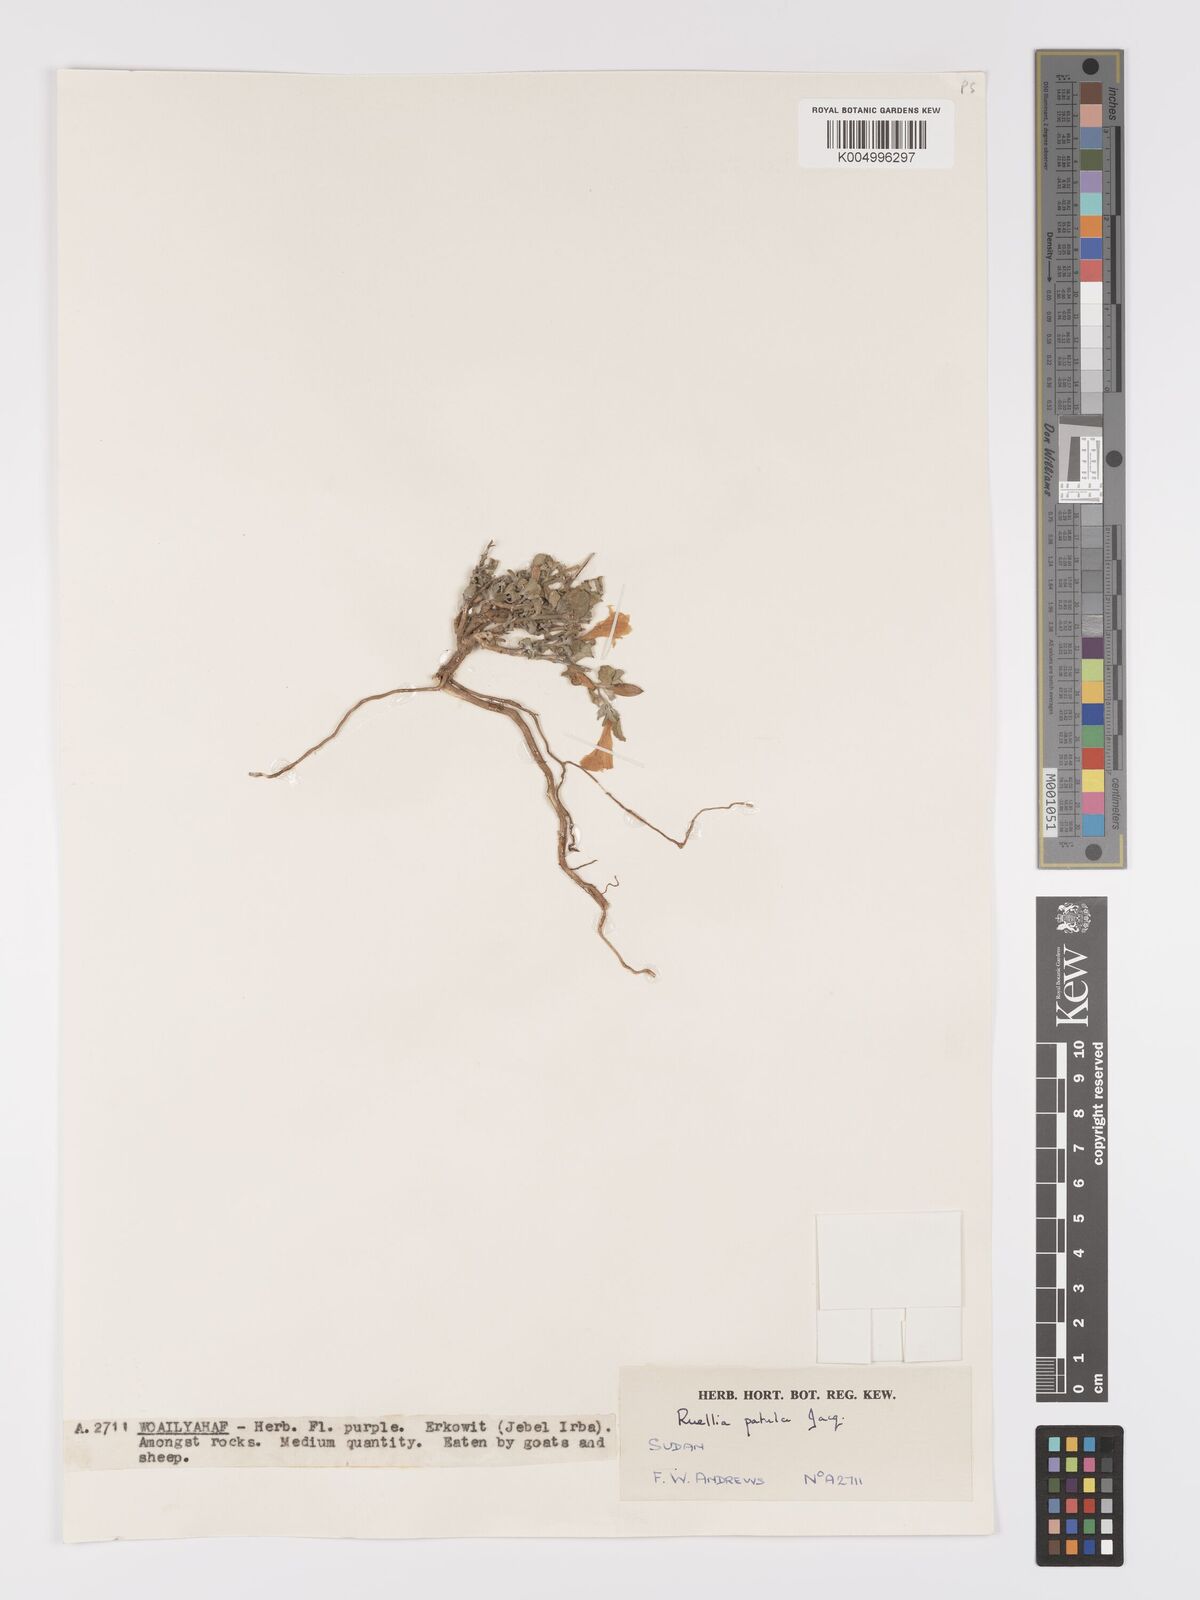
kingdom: Plantae
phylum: Tracheophyta
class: Magnoliopsida
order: Lamiales
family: Acanthaceae
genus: Ruellia
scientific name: Ruellia patula
